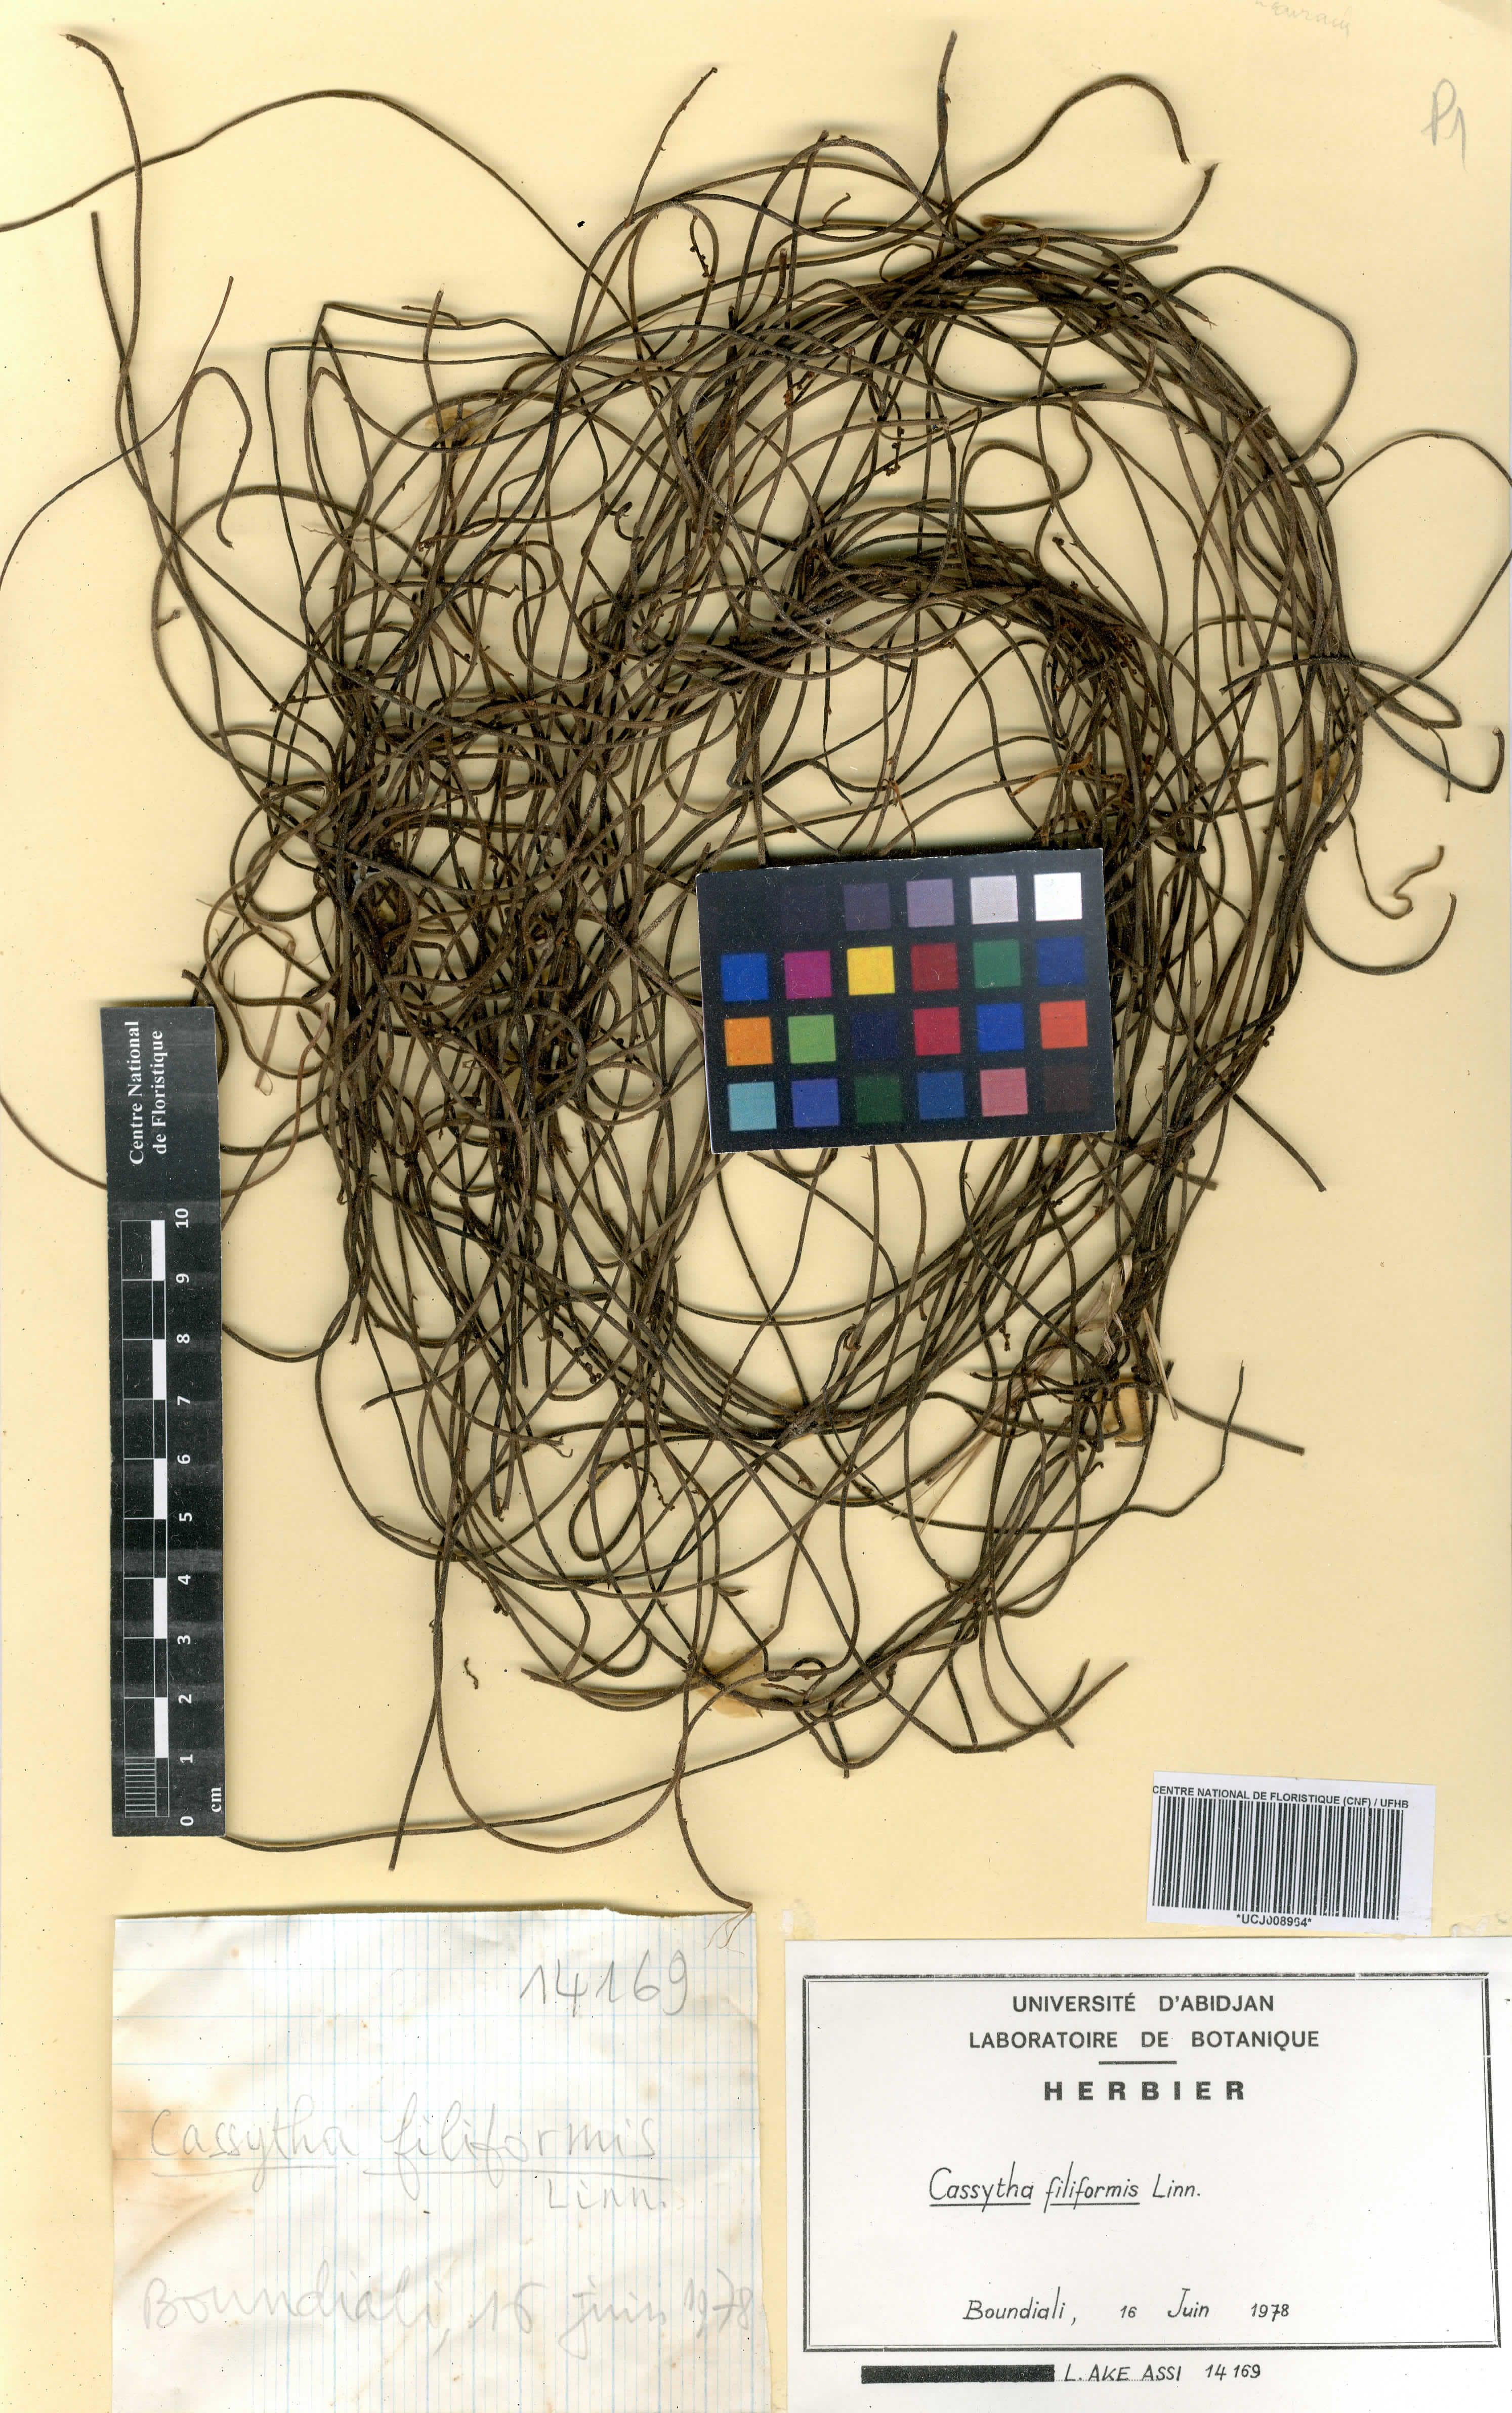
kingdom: Plantae
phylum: Tracheophyta
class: Magnoliopsida
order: Laurales
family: Lauraceae
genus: Cassytha
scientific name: Cassytha filiformis
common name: Dodder-laurel
